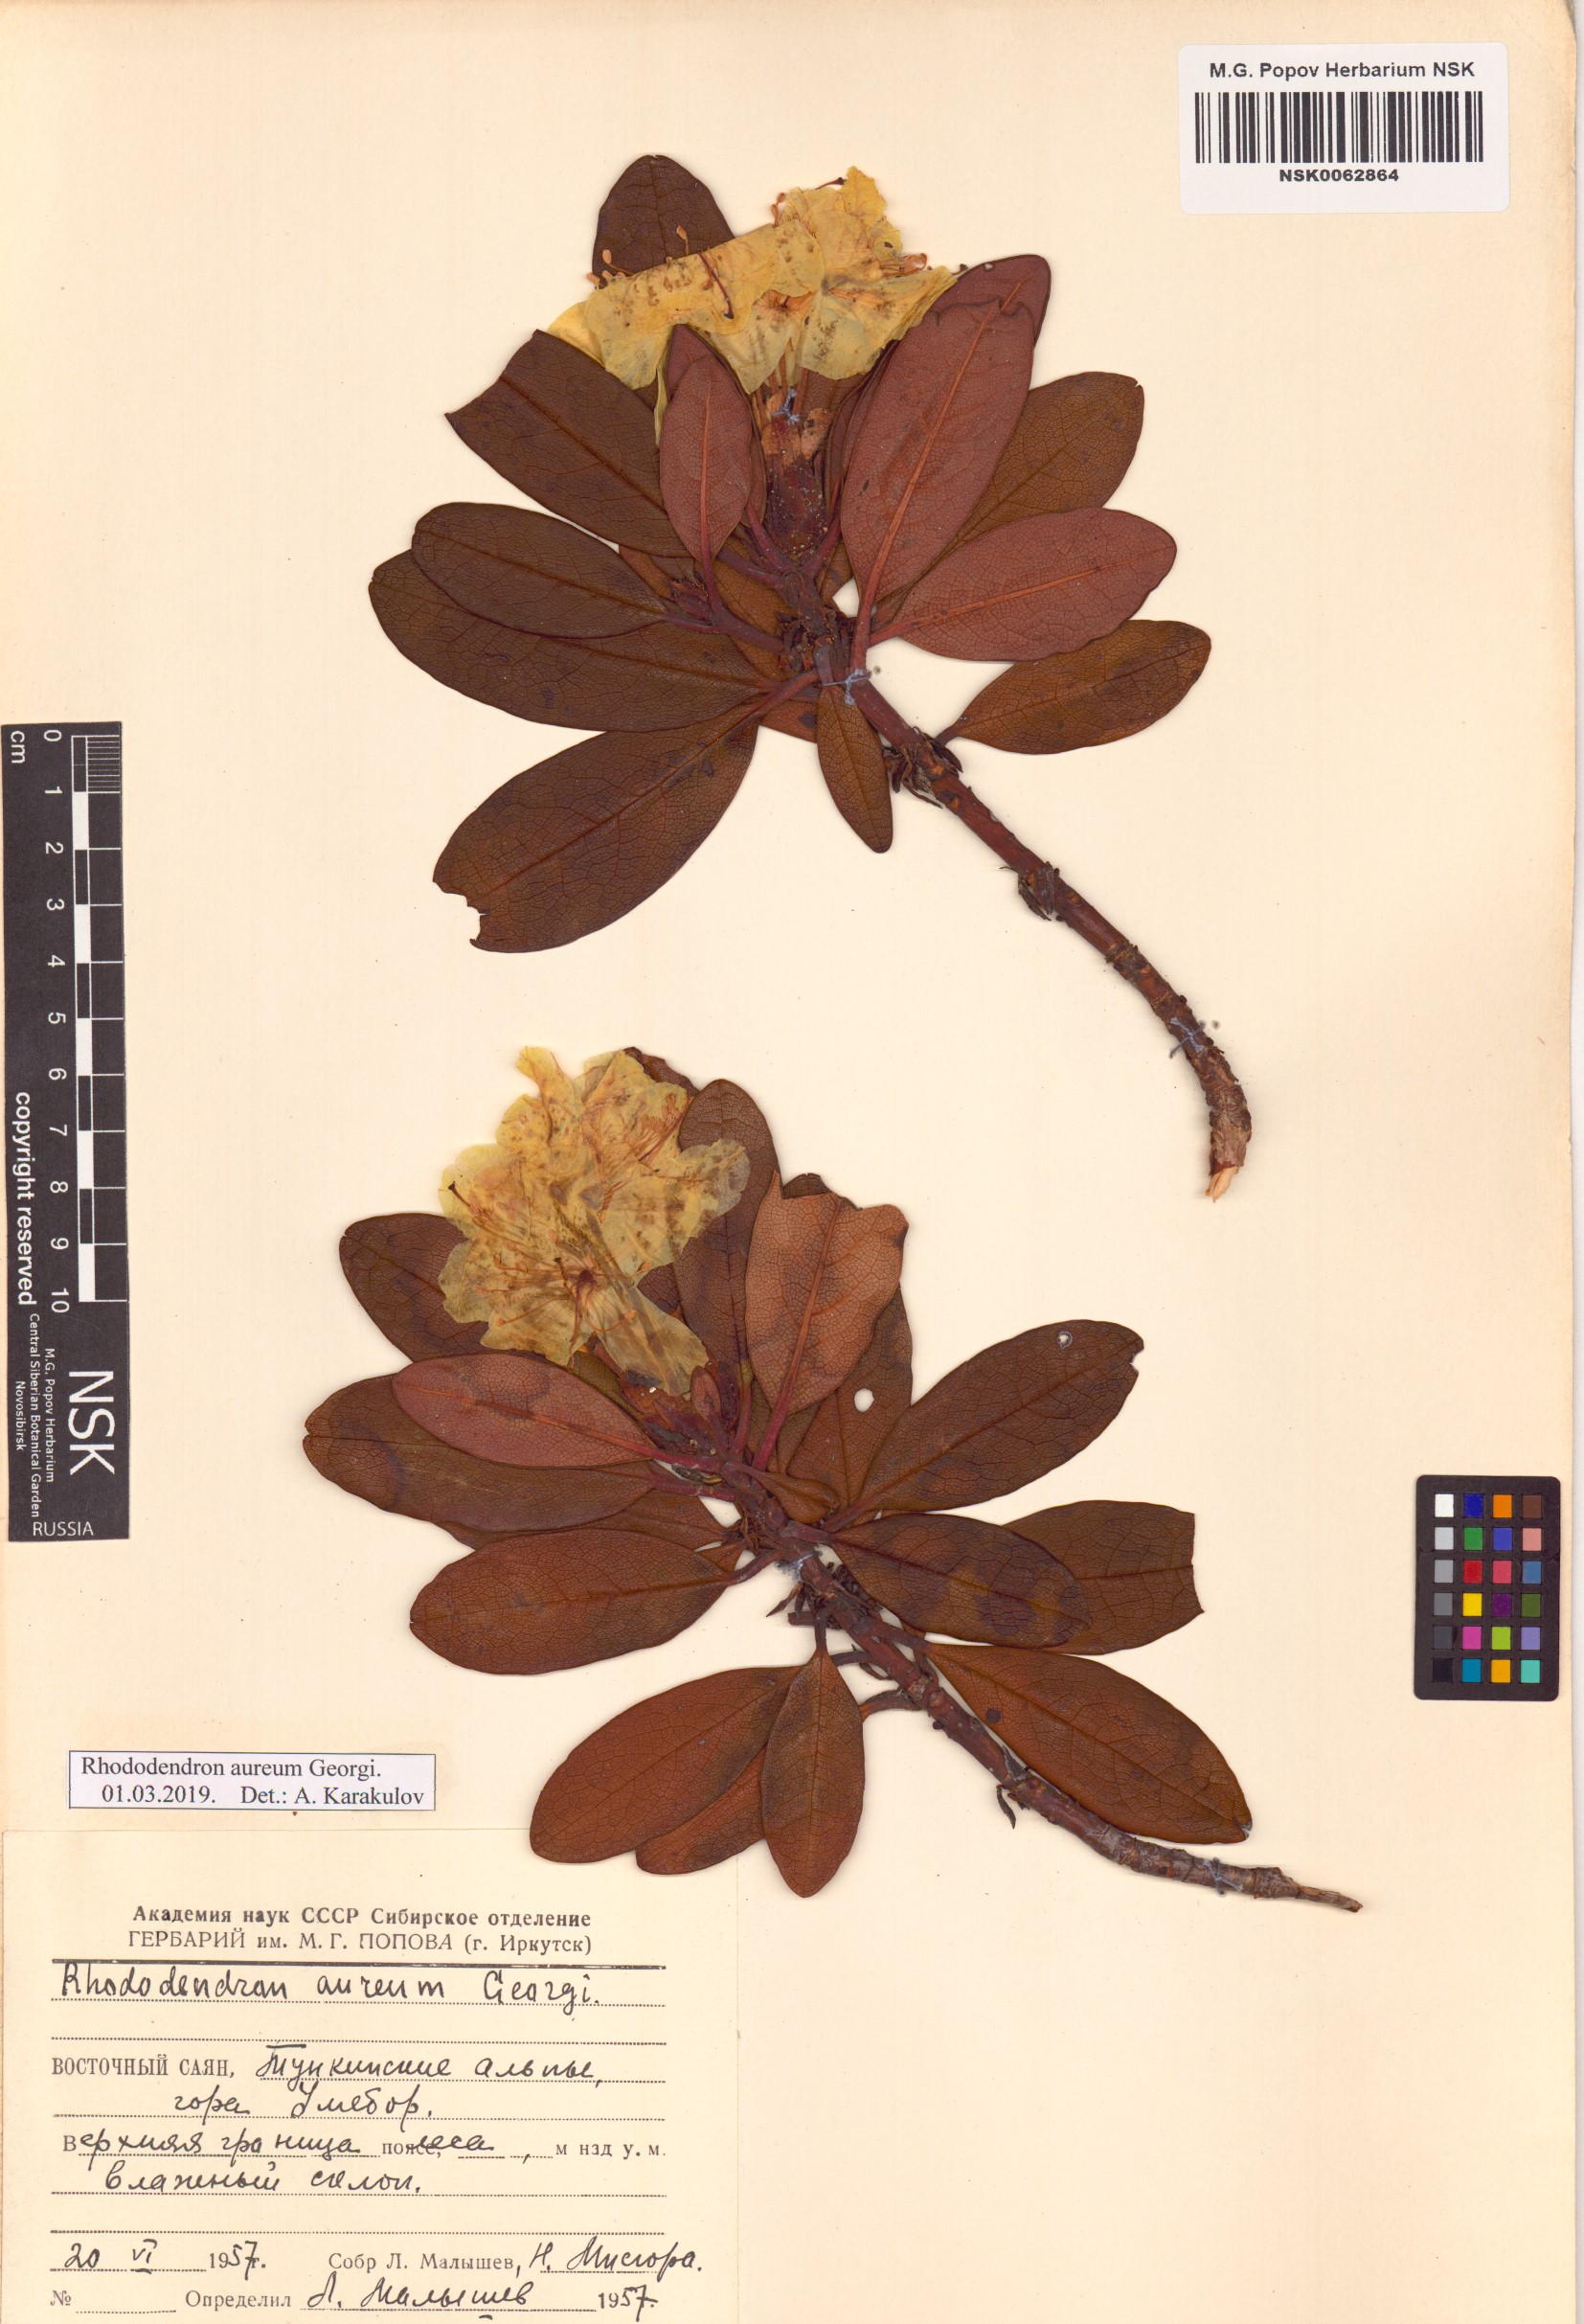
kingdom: Plantae
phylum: Tracheophyta
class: Magnoliopsida
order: Ericales
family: Ericaceae
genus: Rhododendron
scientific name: Rhododendron aureum
